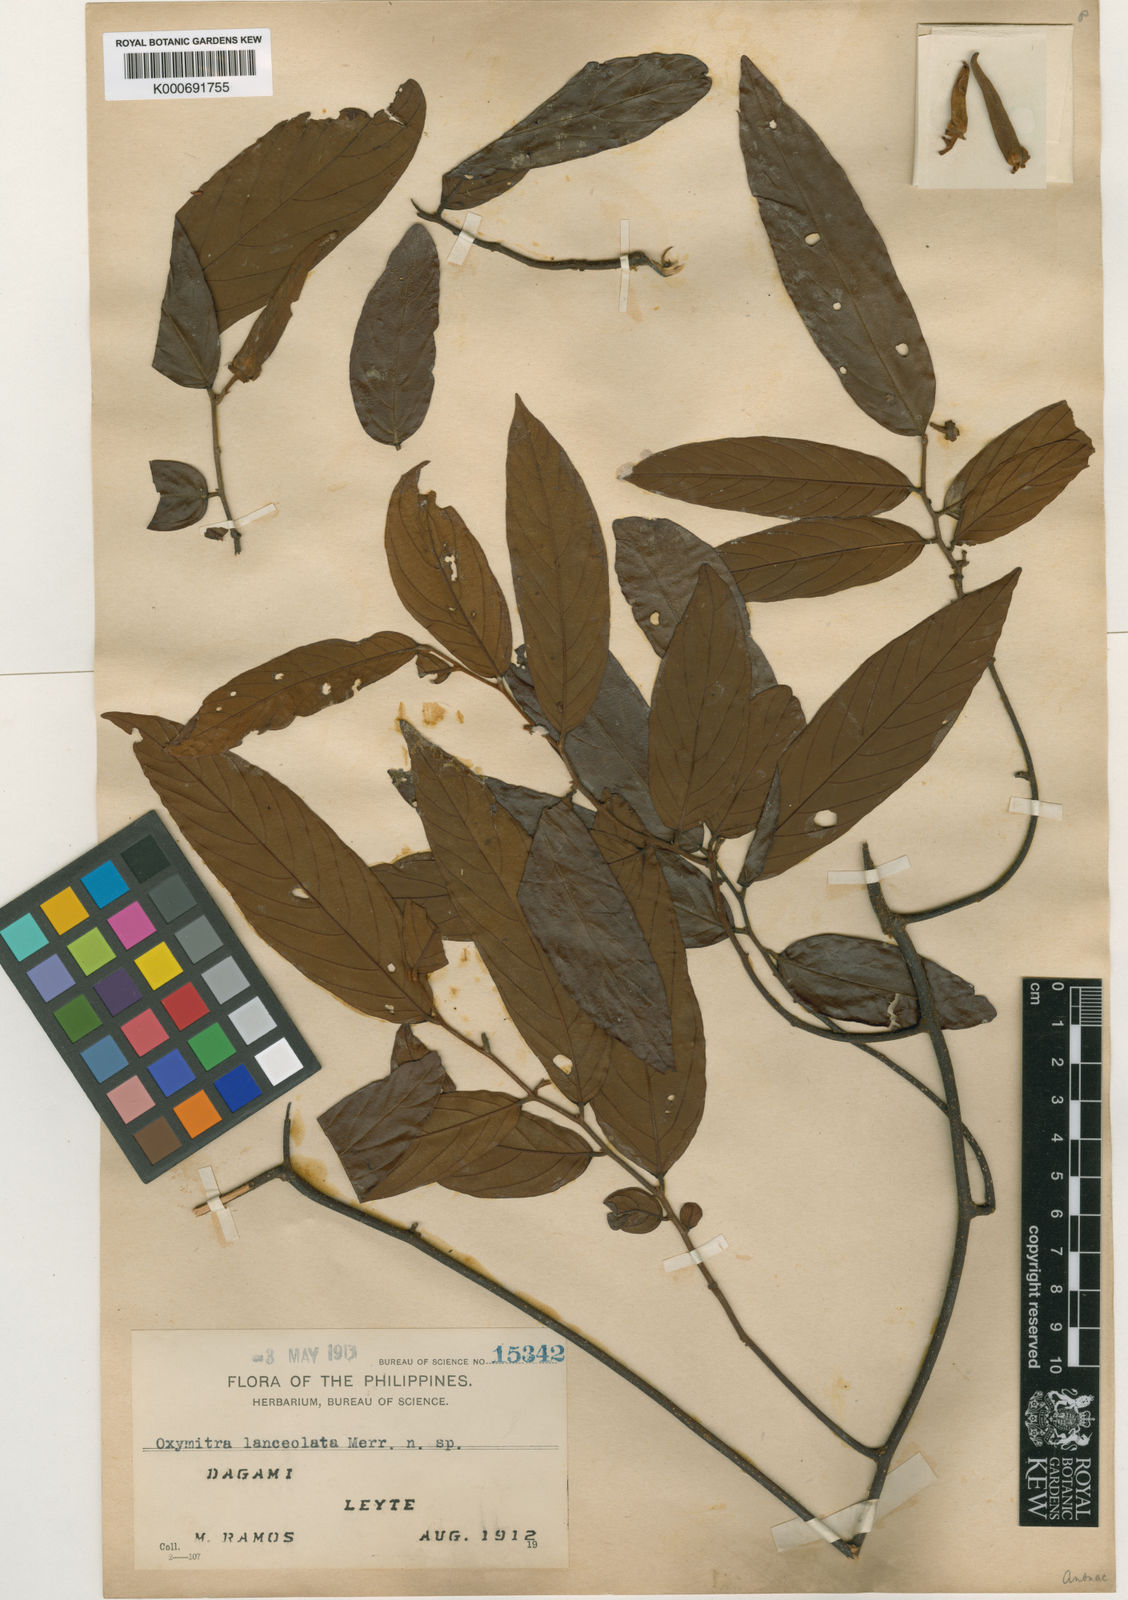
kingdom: Plantae
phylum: Tracheophyta
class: Magnoliopsida
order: Magnoliales
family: Annonaceae
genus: Friesodielsia
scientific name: Friesodielsia lanceolata
